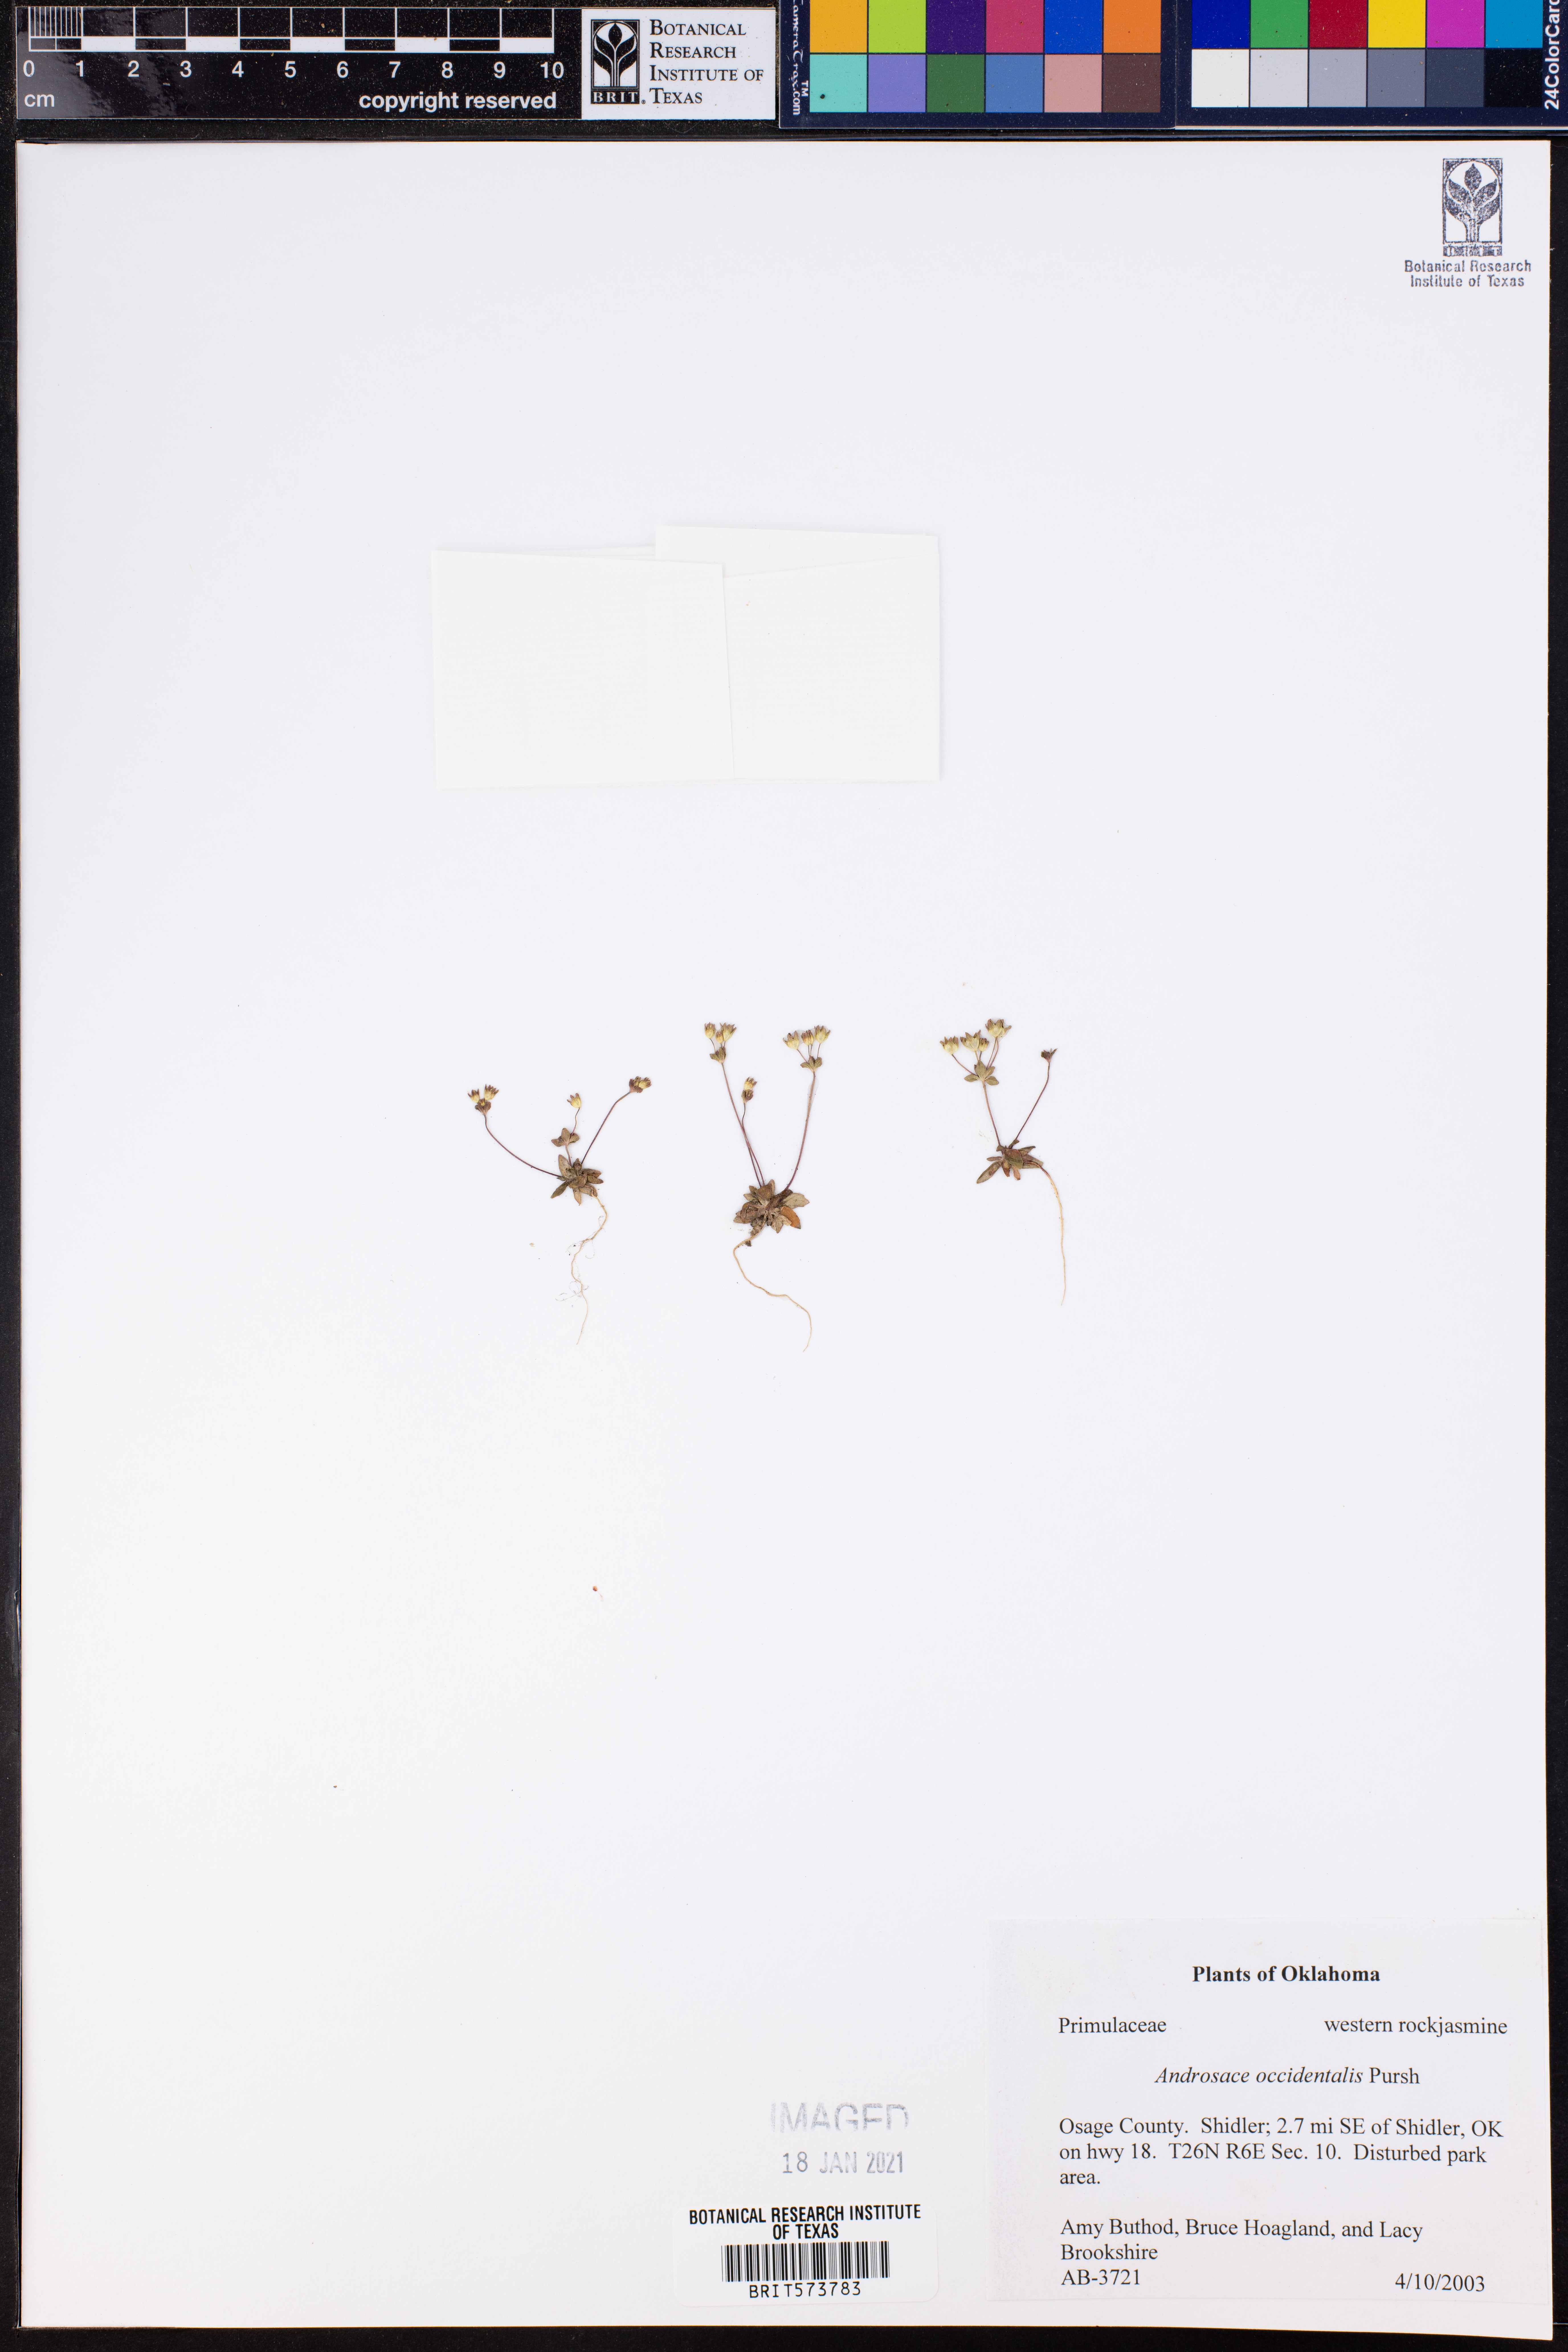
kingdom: Plantae
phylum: Tracheophyta
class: Magnoliopsida
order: Ericales
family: Primulaceae
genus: Androsace
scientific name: Androsace occidentalis
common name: West rock-jasmine
